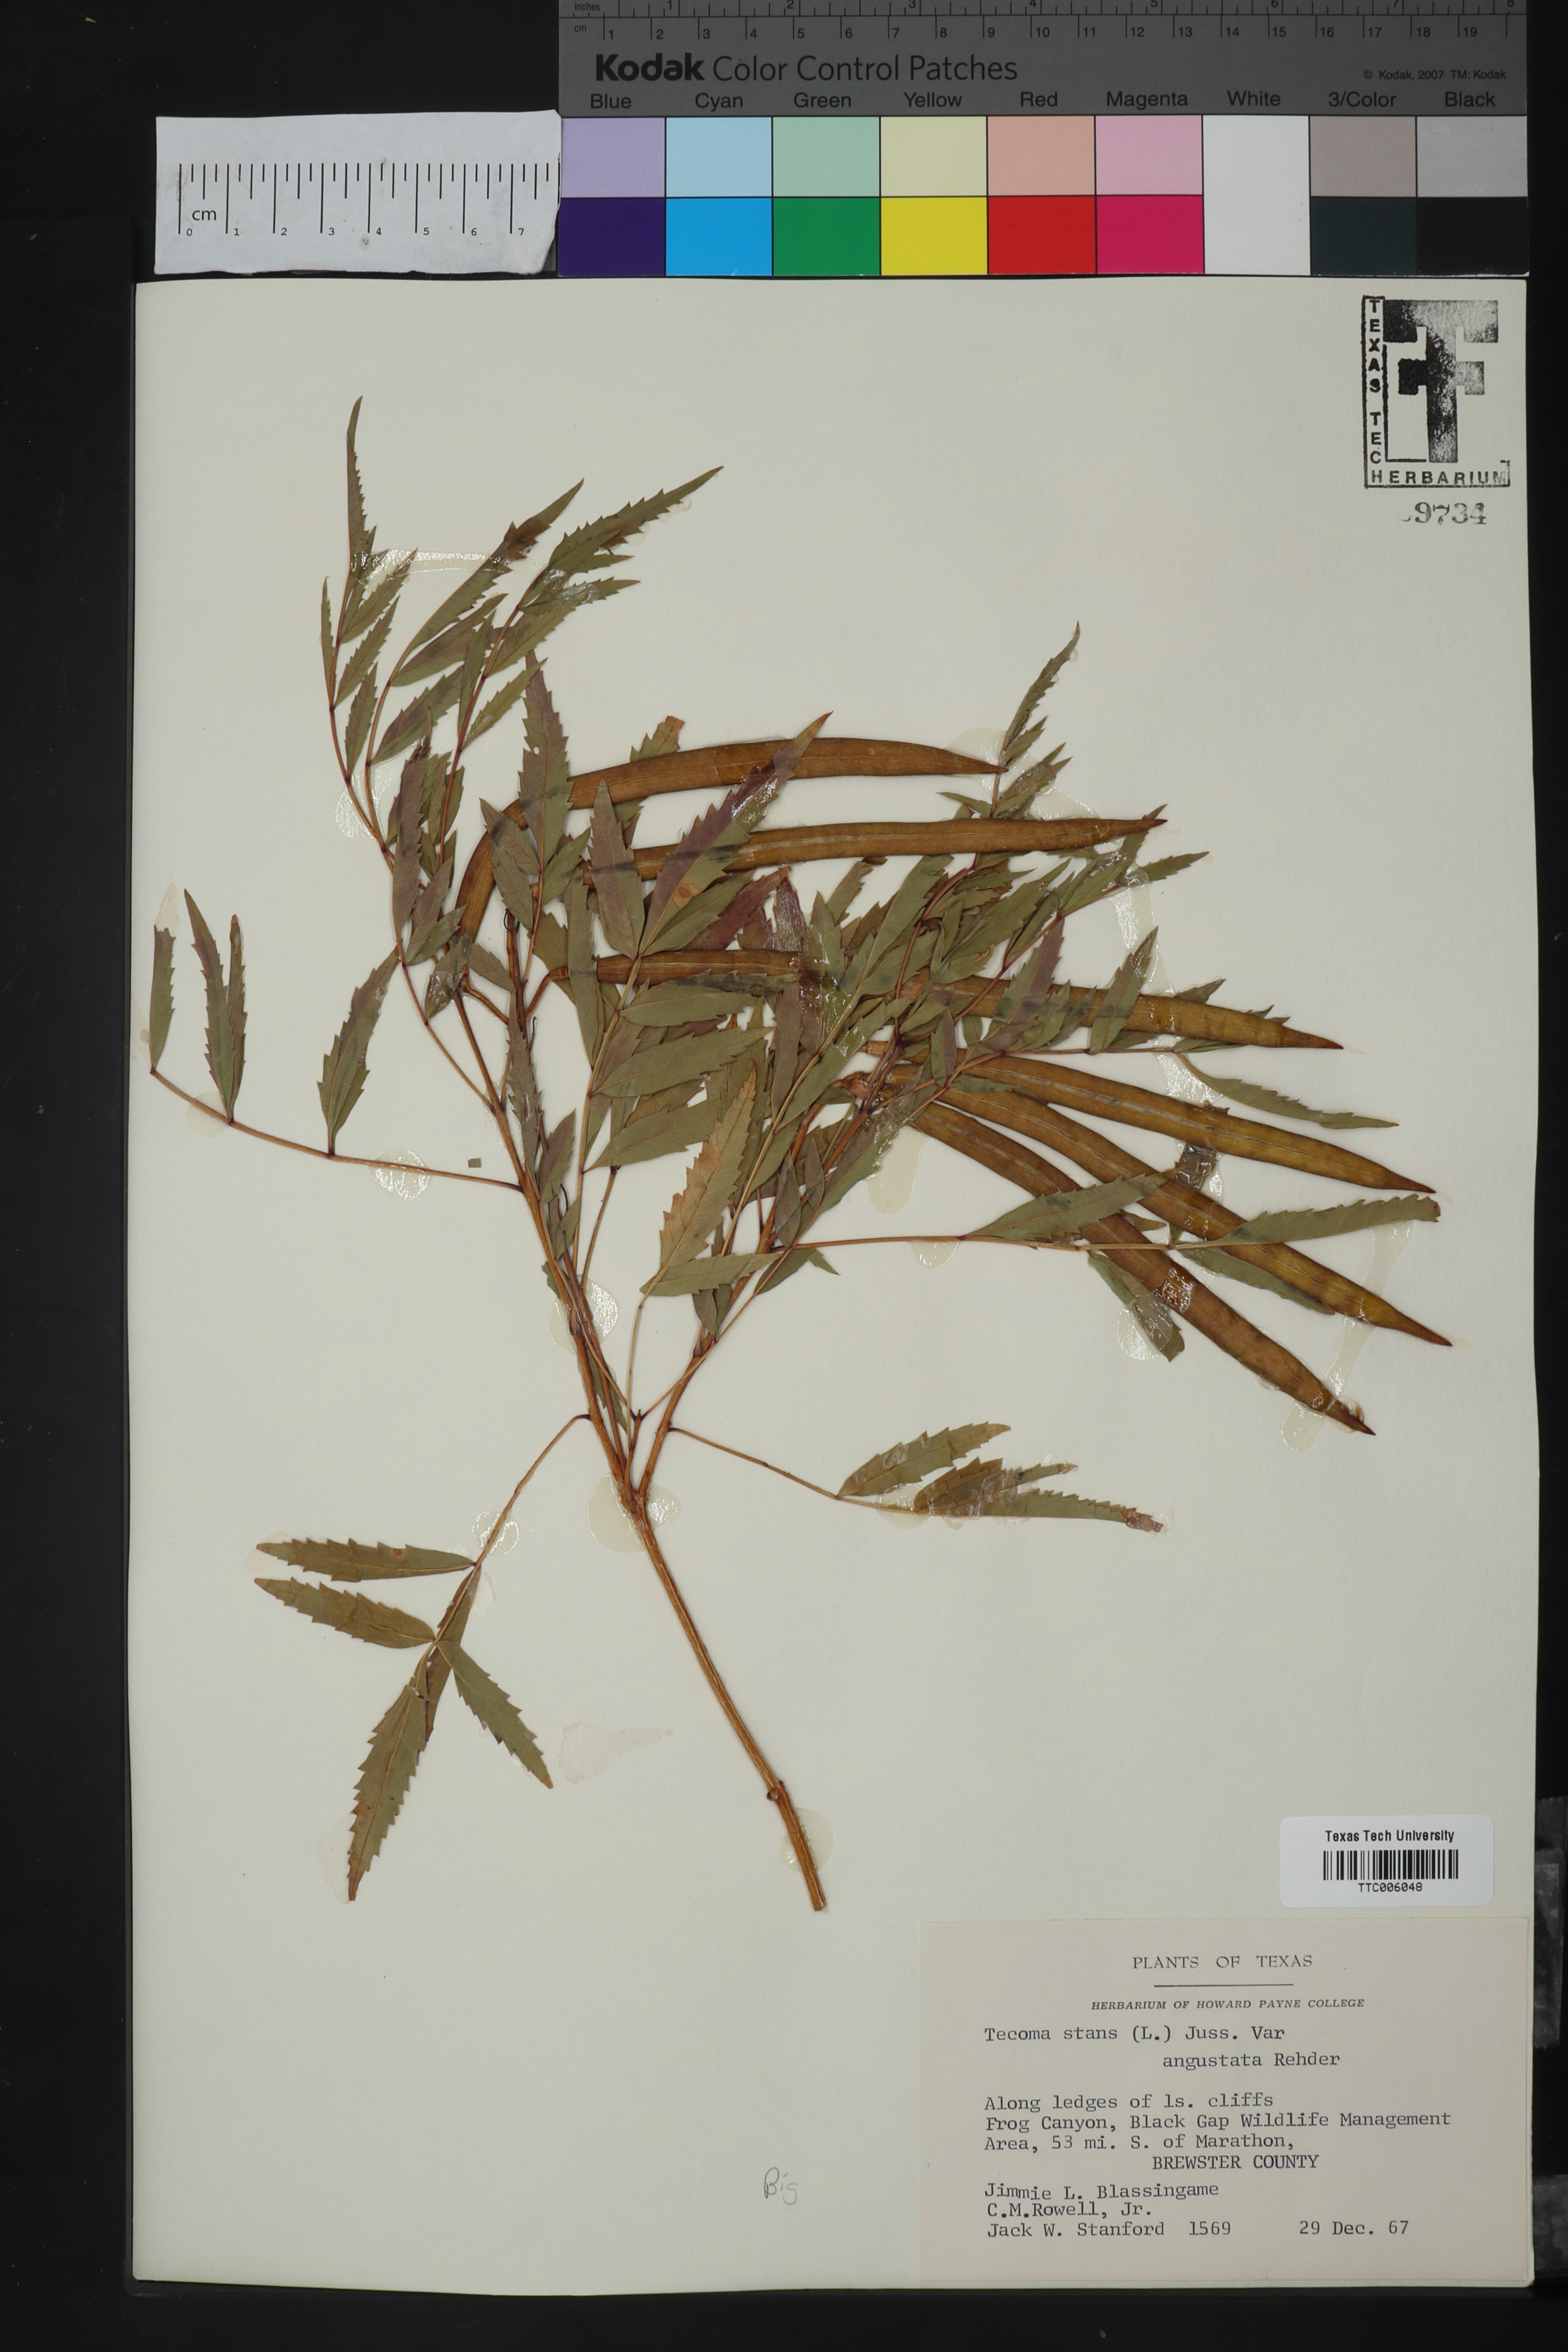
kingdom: Plantae
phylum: Tracheophyta
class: Magnoliopsida
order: Lamiales
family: Bignoniaceae
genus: Tecoma
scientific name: Tecoma stans
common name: Yellow trumpetbush
